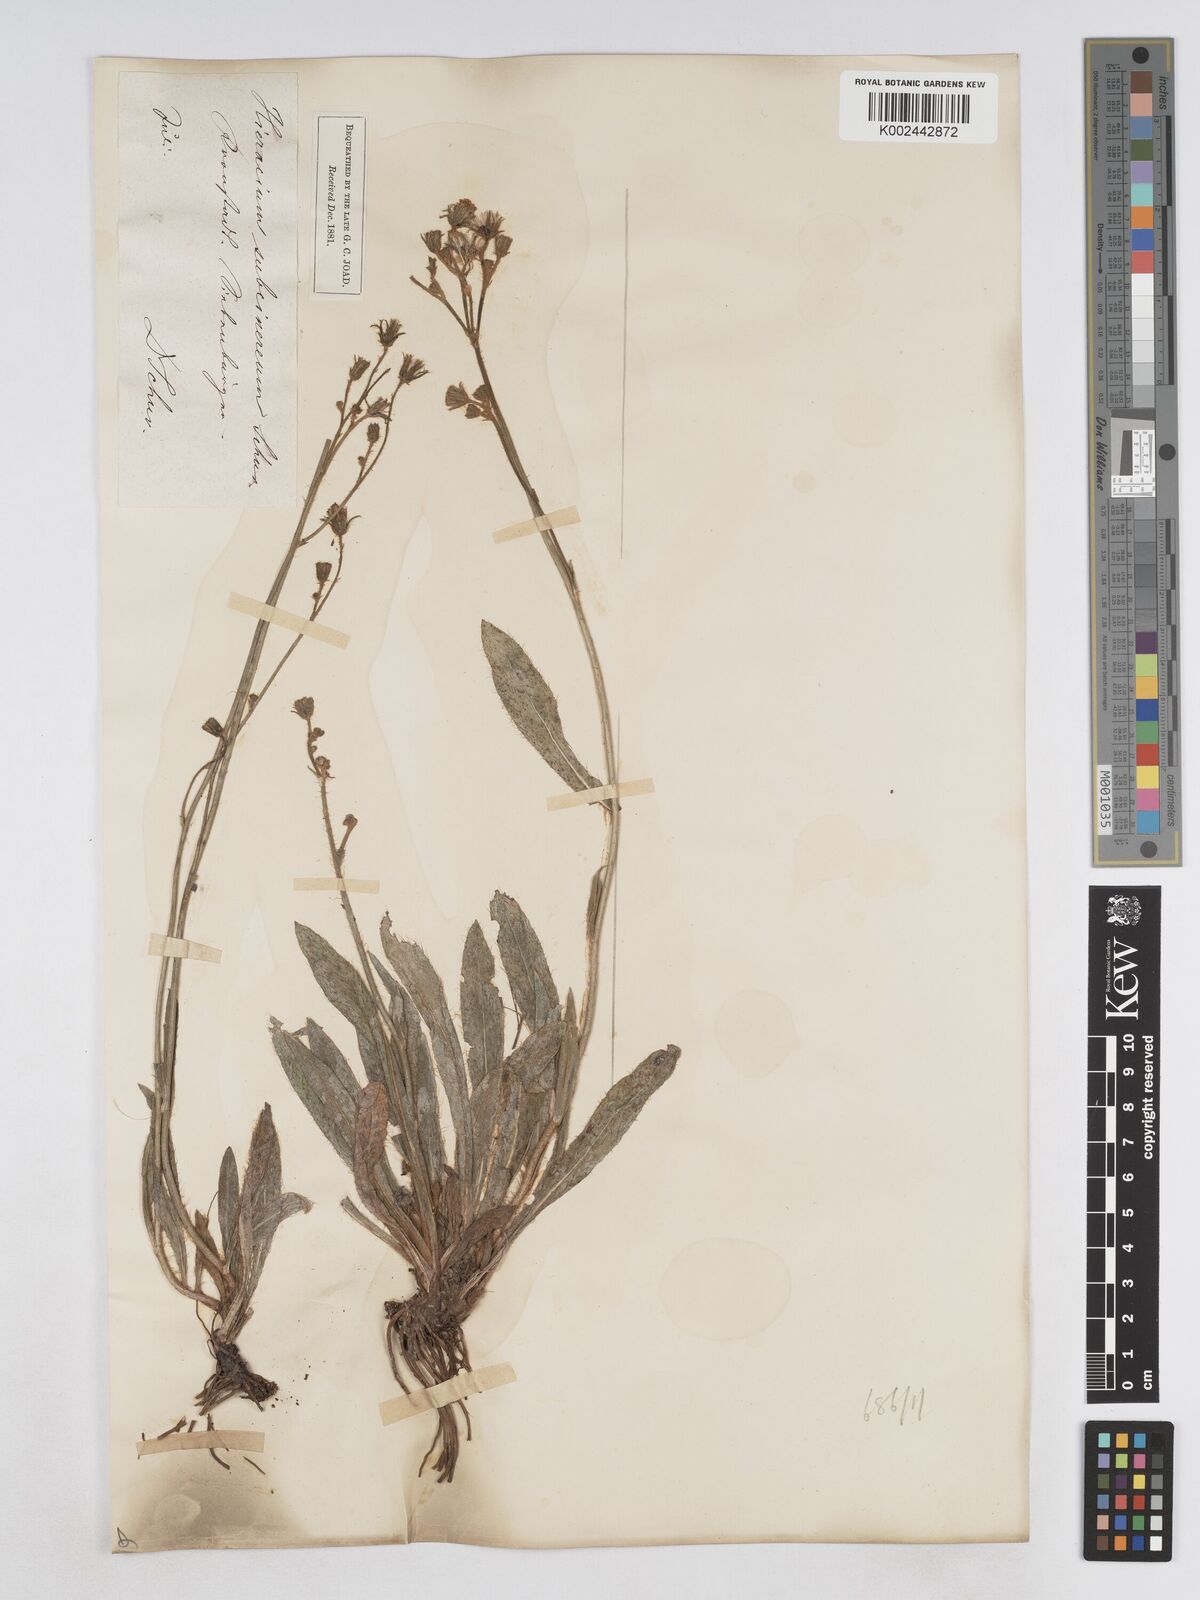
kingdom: Plantae
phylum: Tracheophyta
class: Magnoliopsida
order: Asterales
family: Asteraceae
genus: Pilosella
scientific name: Pilosella bifurca
